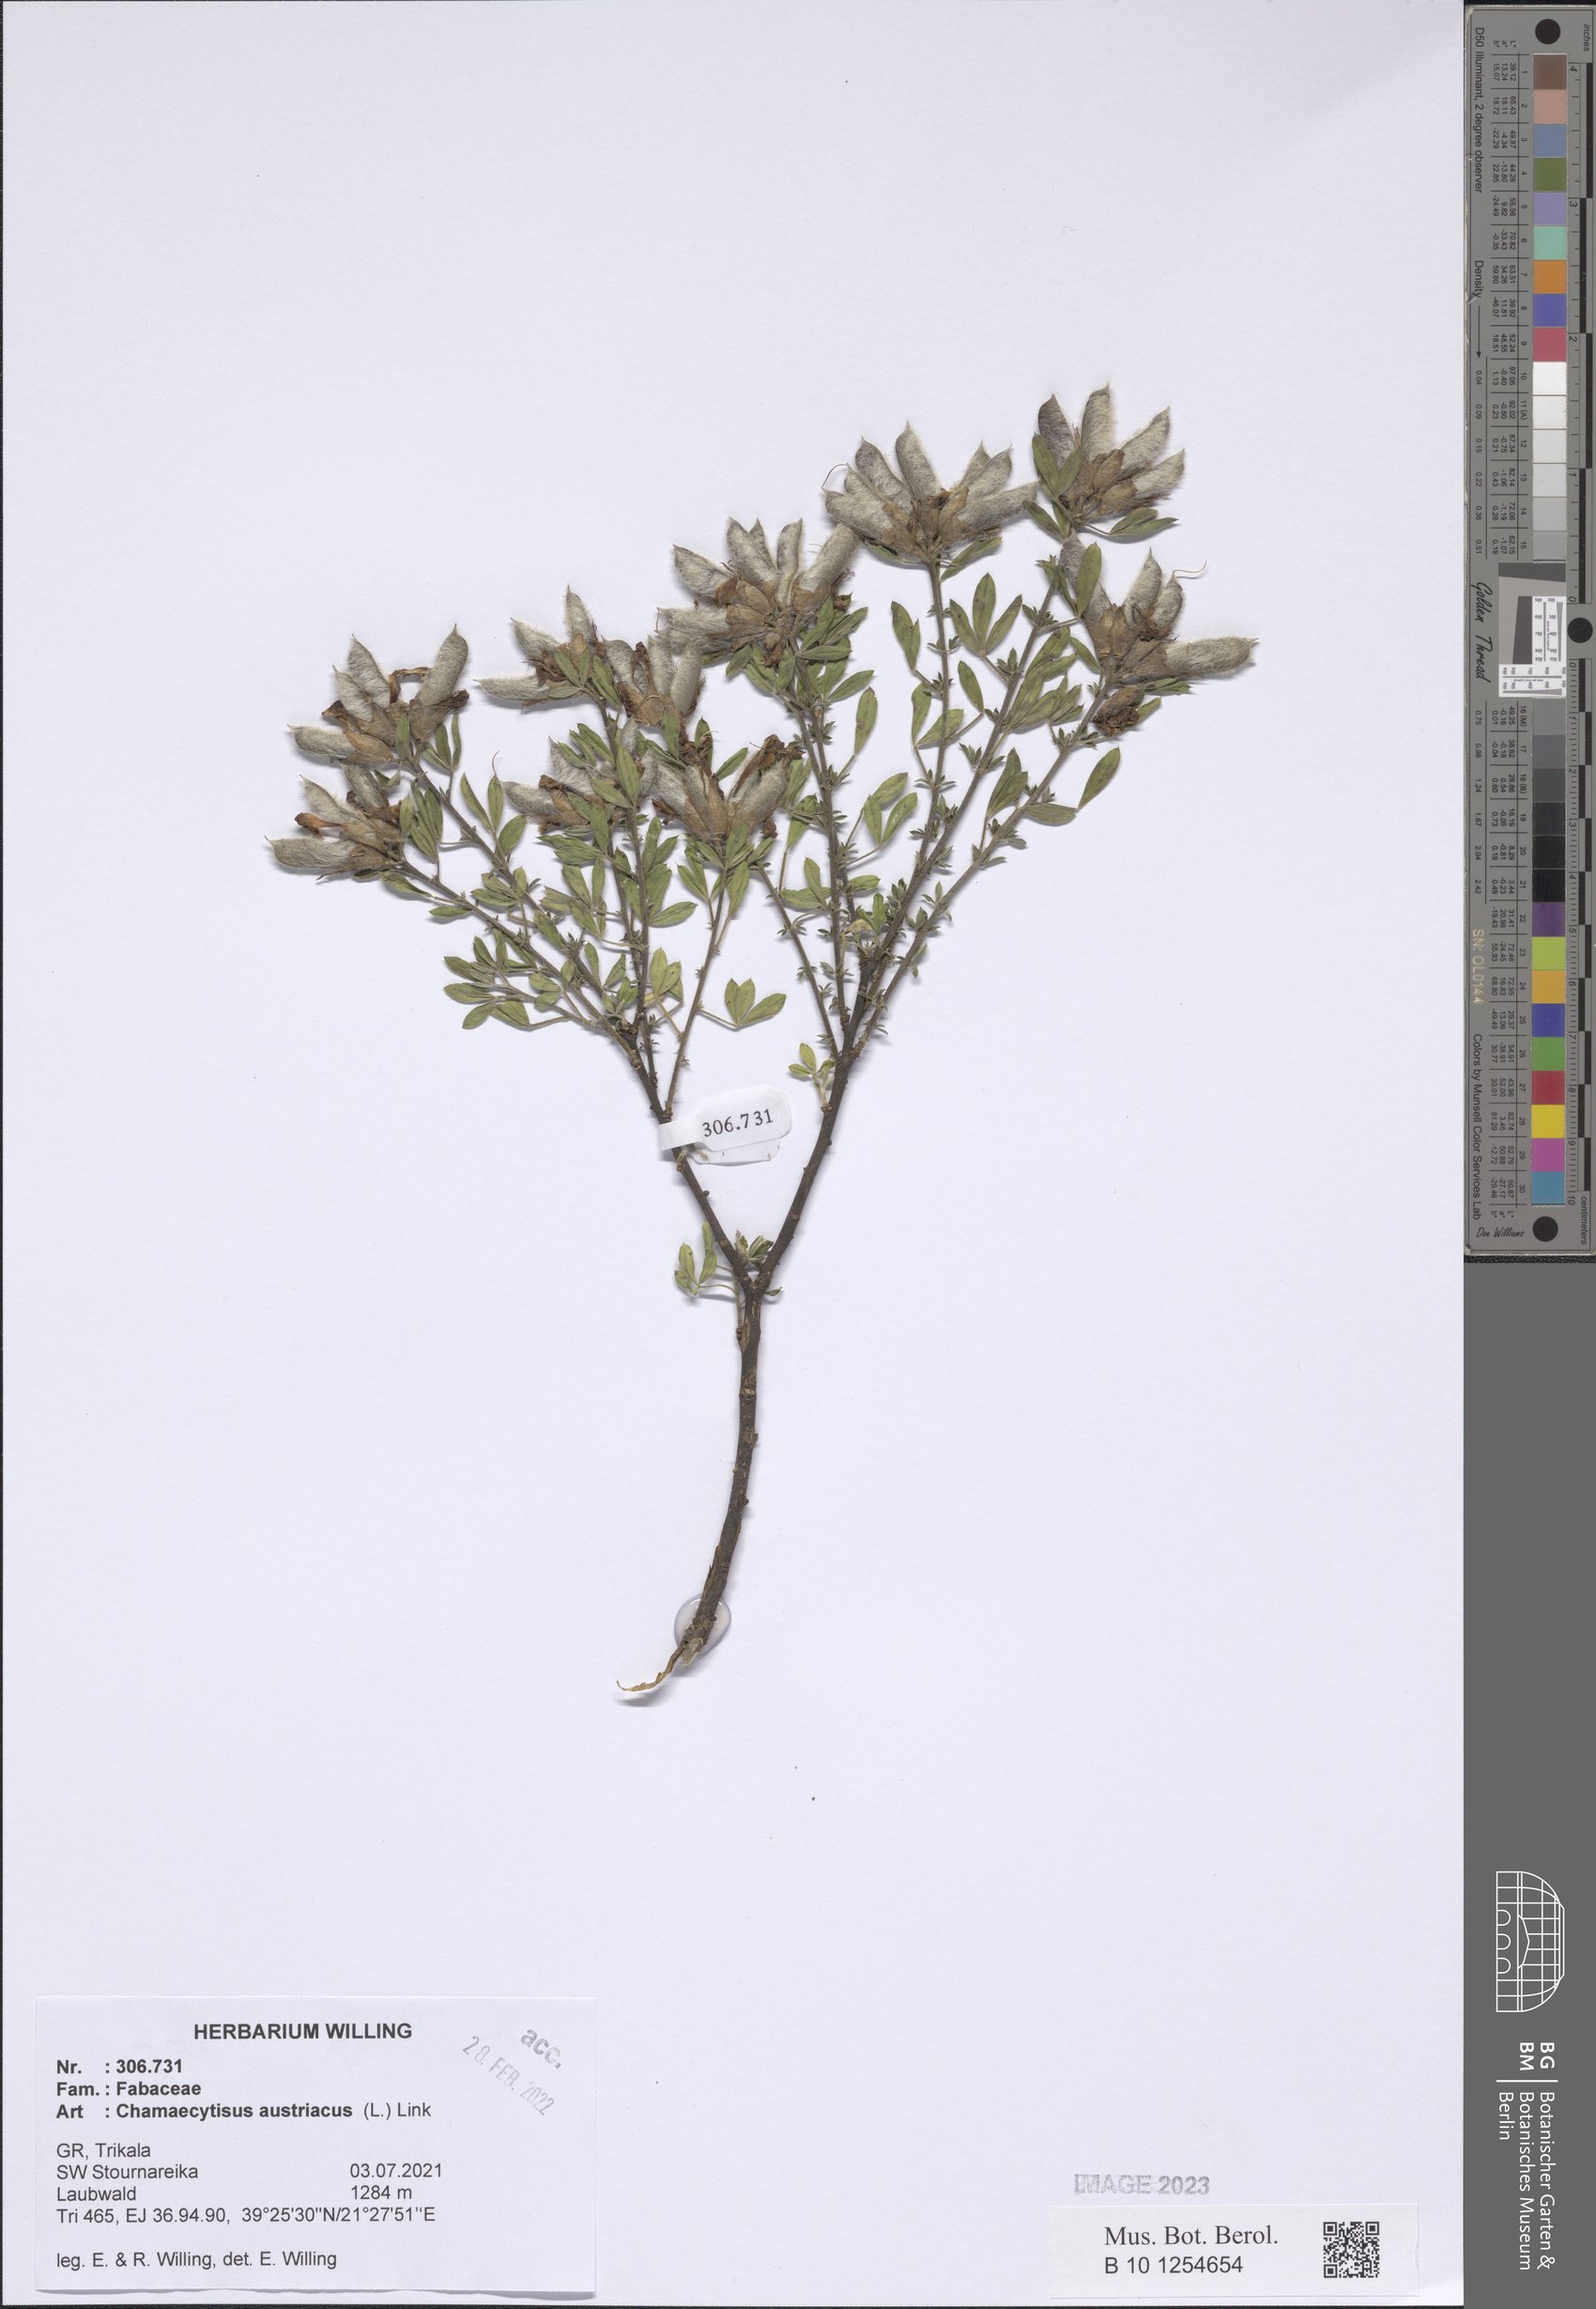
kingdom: Plantae
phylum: Tracheophyta
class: Magnoliopsida
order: Fabales
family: Fabaceae
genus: Chamaecytisus
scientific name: Chamaecytisus austriacus
